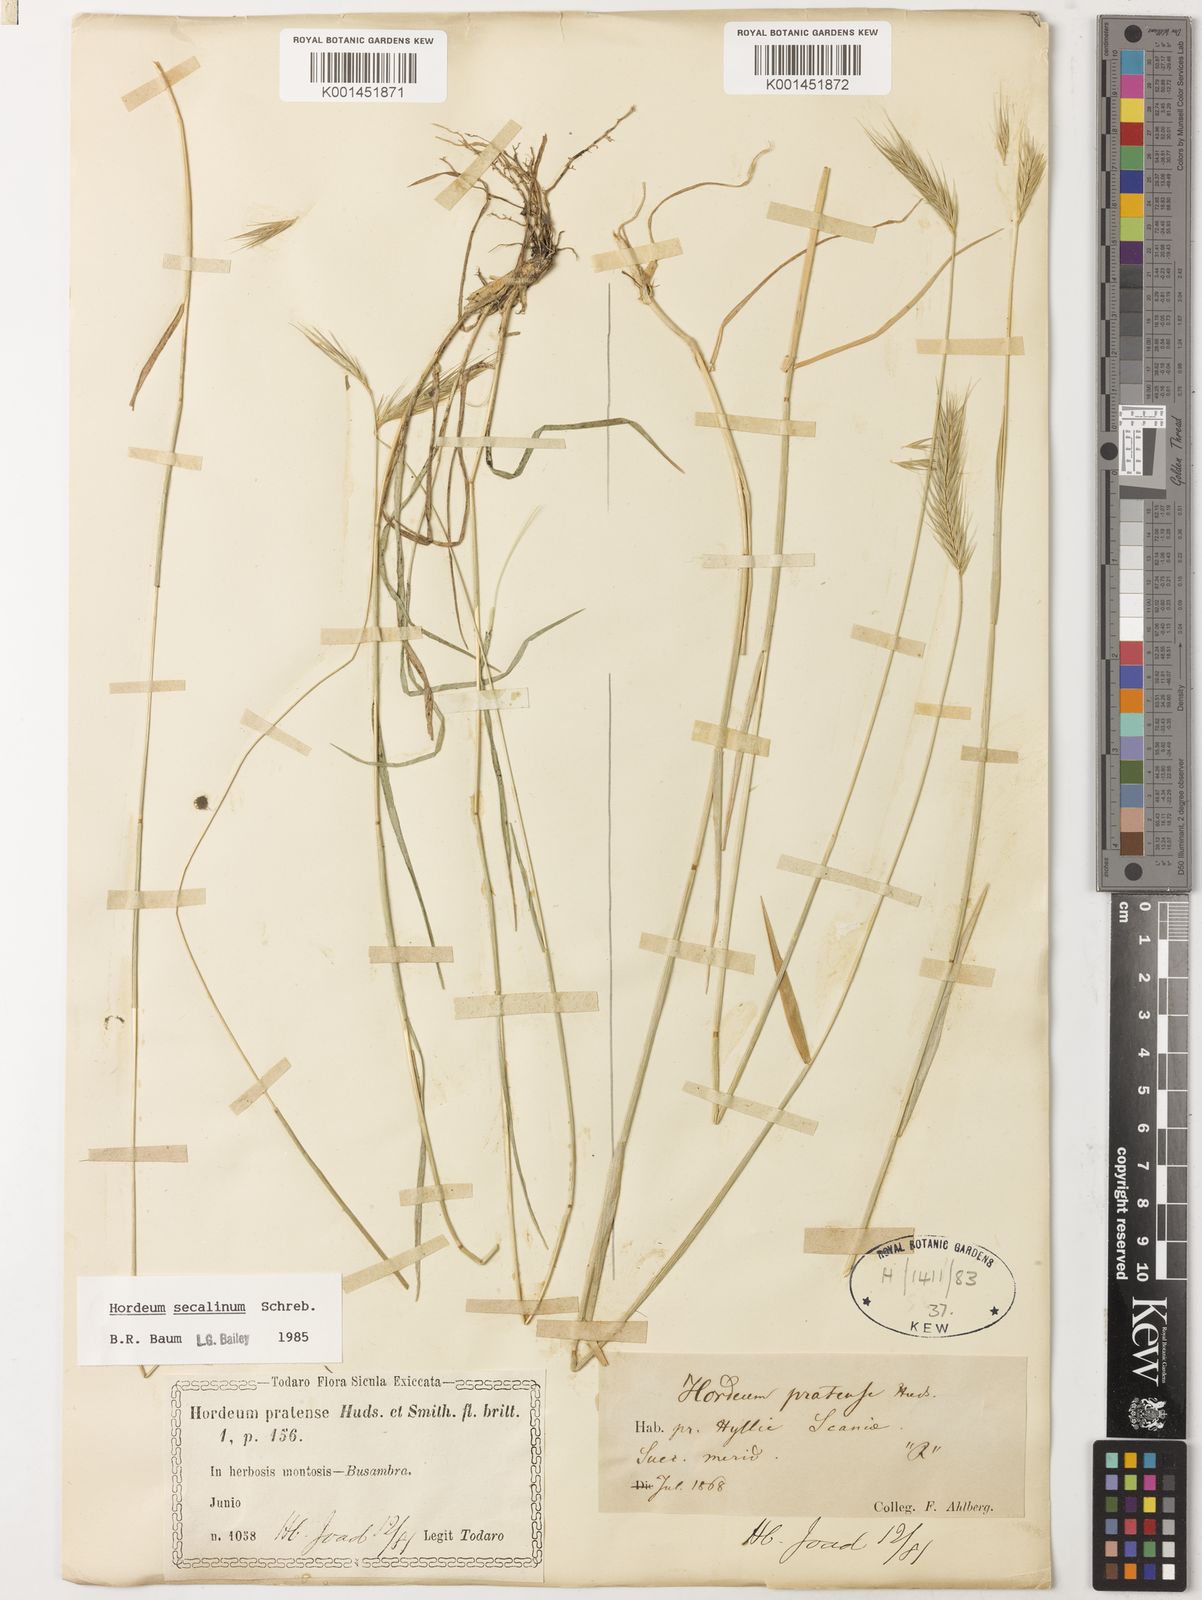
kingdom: Plantae
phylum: Tracheophyta
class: Liliopsida
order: Poales
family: Poaceae
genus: Hordeum
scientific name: Hordeum secalinum
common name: Meadow barley
